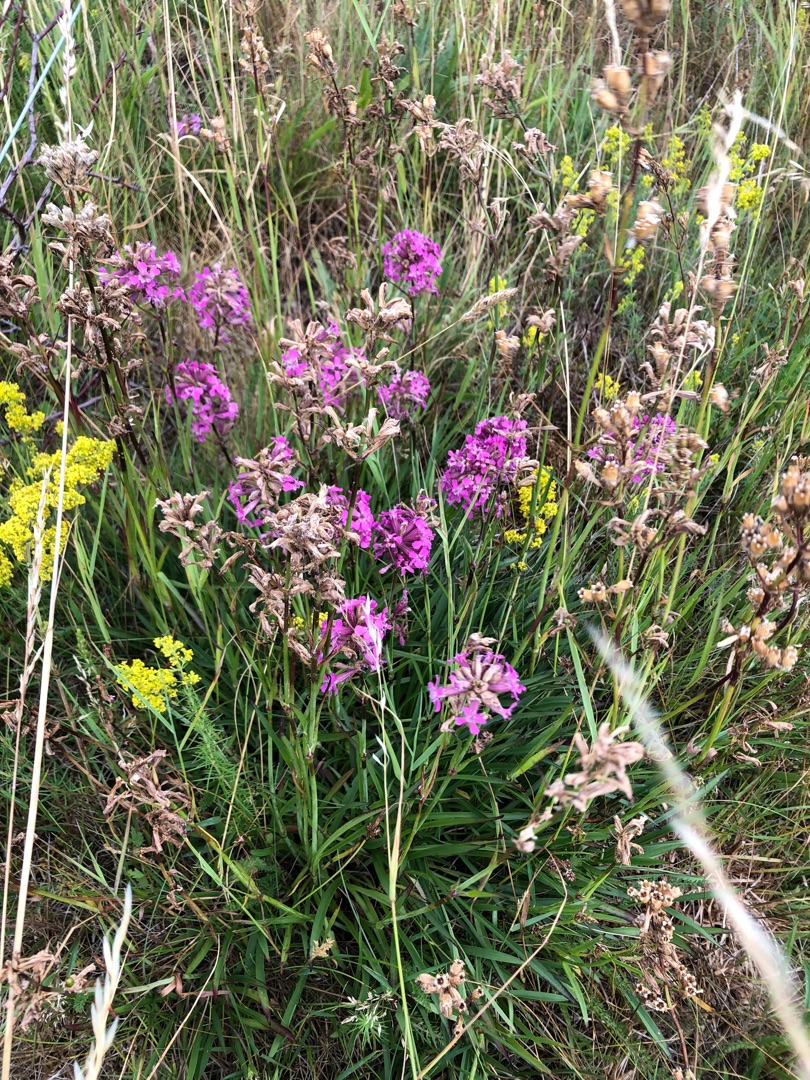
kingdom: Plantae
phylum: Tracheophyta
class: Magnoliopsida
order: Caryophyllales
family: Caryophyllaceae
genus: Viscaria
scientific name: Viscaria vulgaris
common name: Tjærenellike
